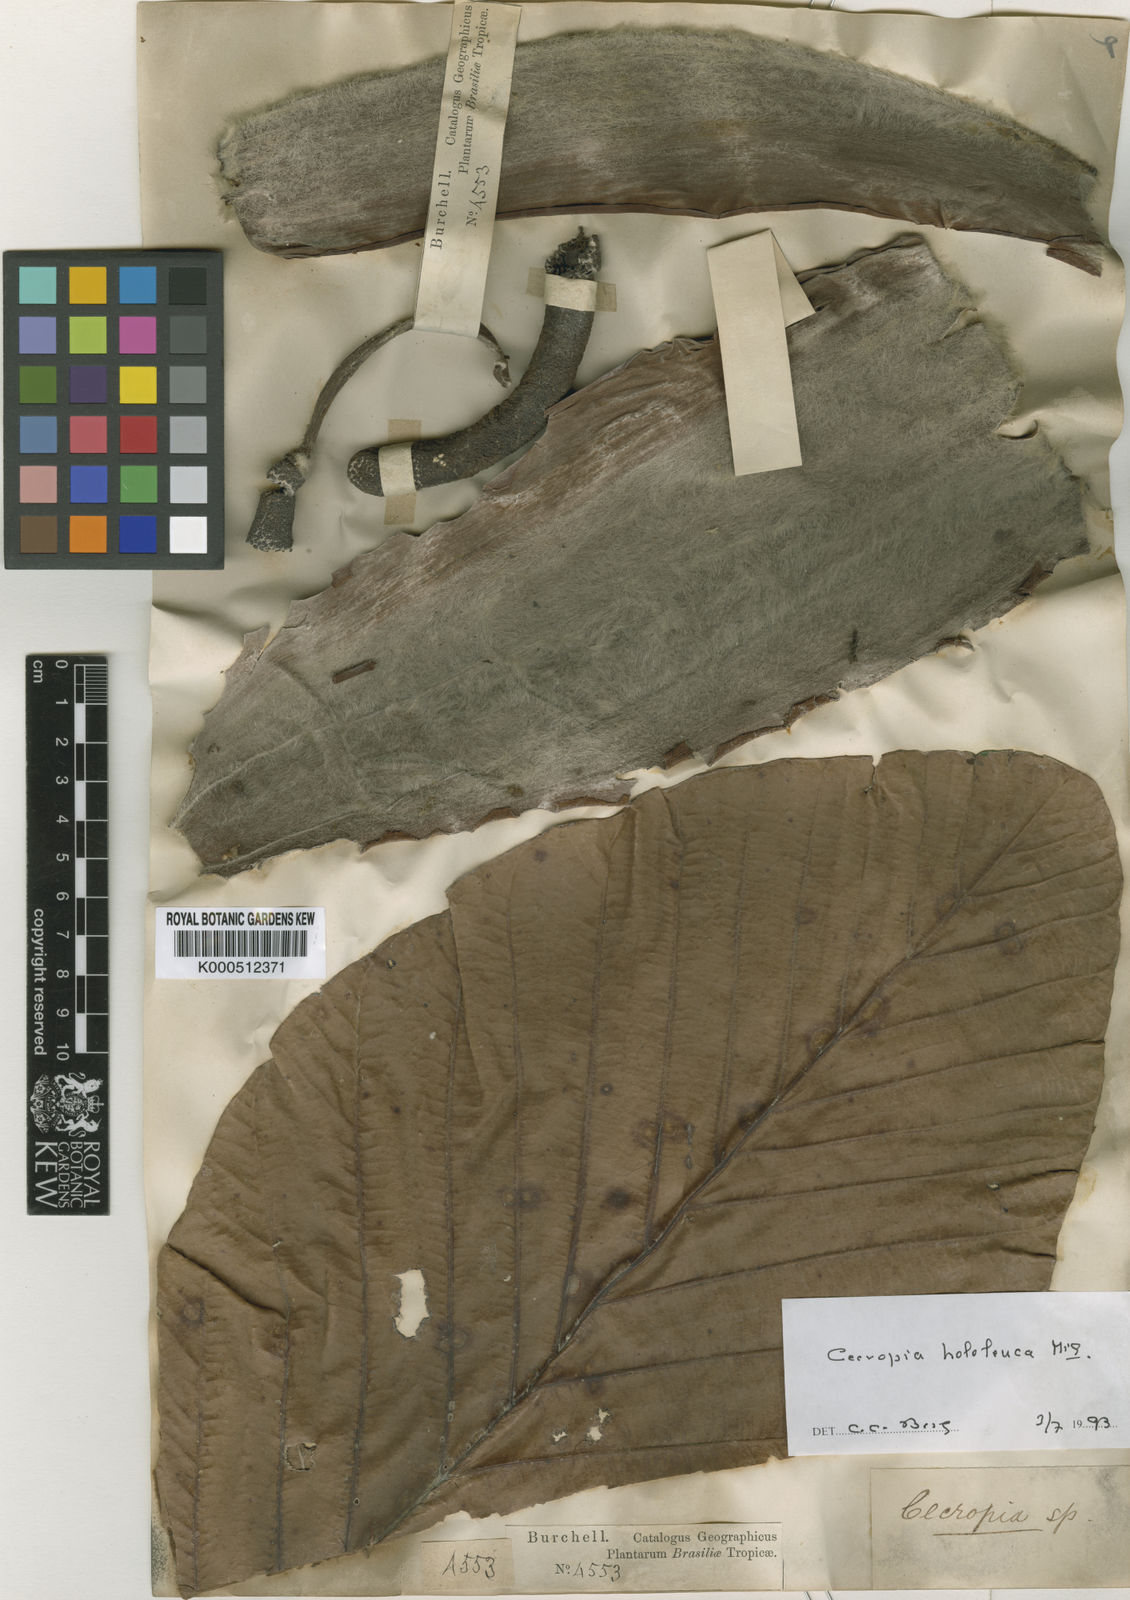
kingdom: Plantae
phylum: Tracheophyta
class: Magnoliopsida
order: Rosales
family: Urticaceae
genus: Cecropia
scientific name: Cecropia hololeuca
